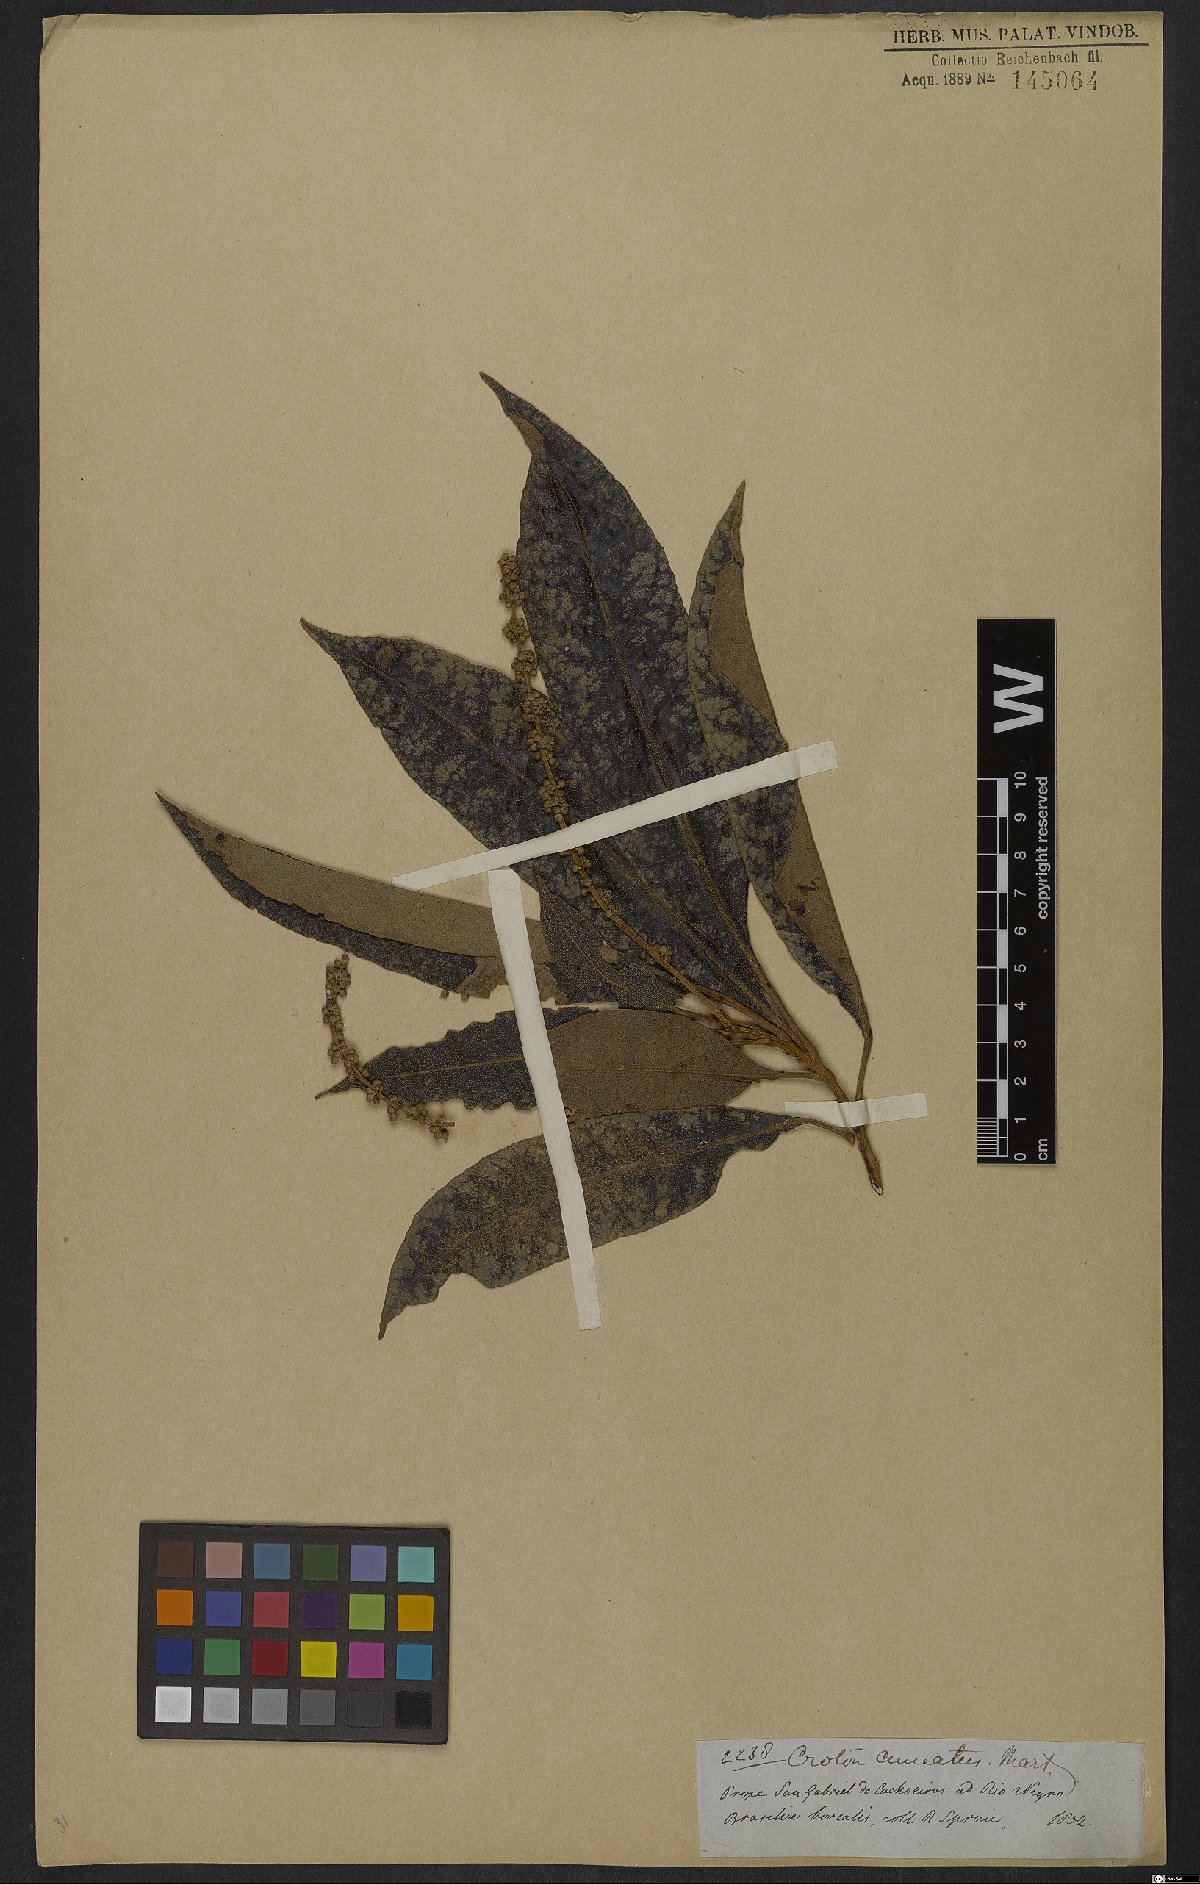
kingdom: Plantae
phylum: Tracheophyta
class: Magnoliopsida
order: Malpighiales
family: Euphorbiaceae
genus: Croton
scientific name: Croton cuneatus
